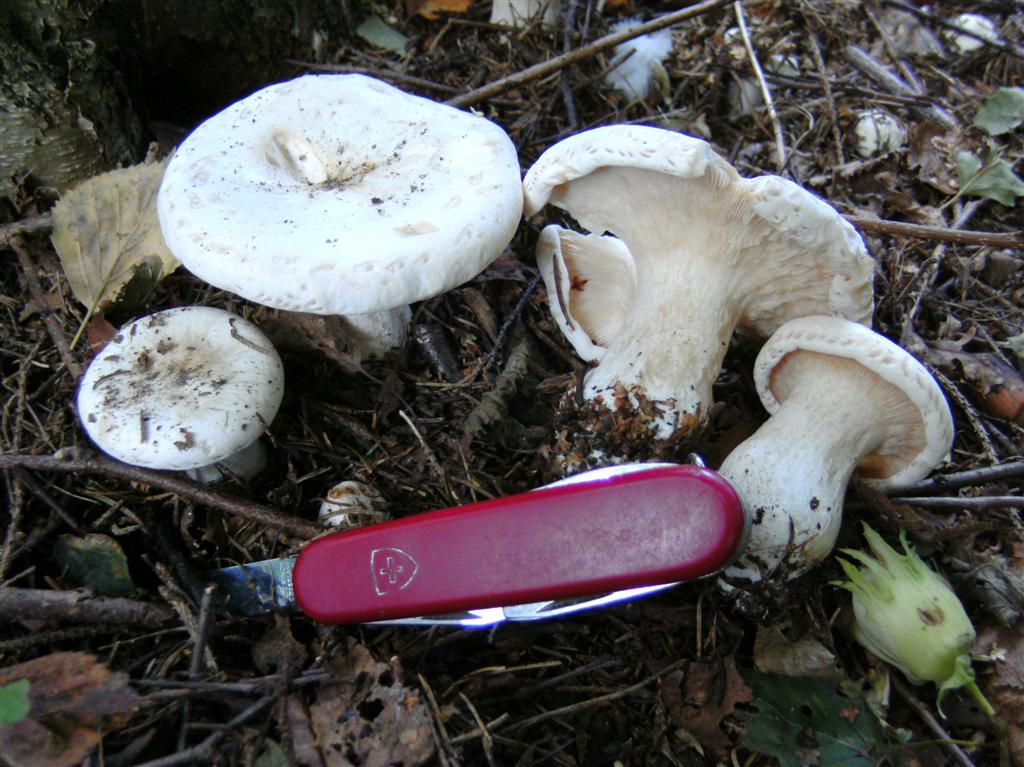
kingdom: Fungi
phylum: Basidiomycota
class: Agaricomycetes
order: Agaricales
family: Tricholomataceae
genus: Aspropaxillus
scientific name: Aspropaxillus giganteus
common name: kæmpe-tragtridderhat
